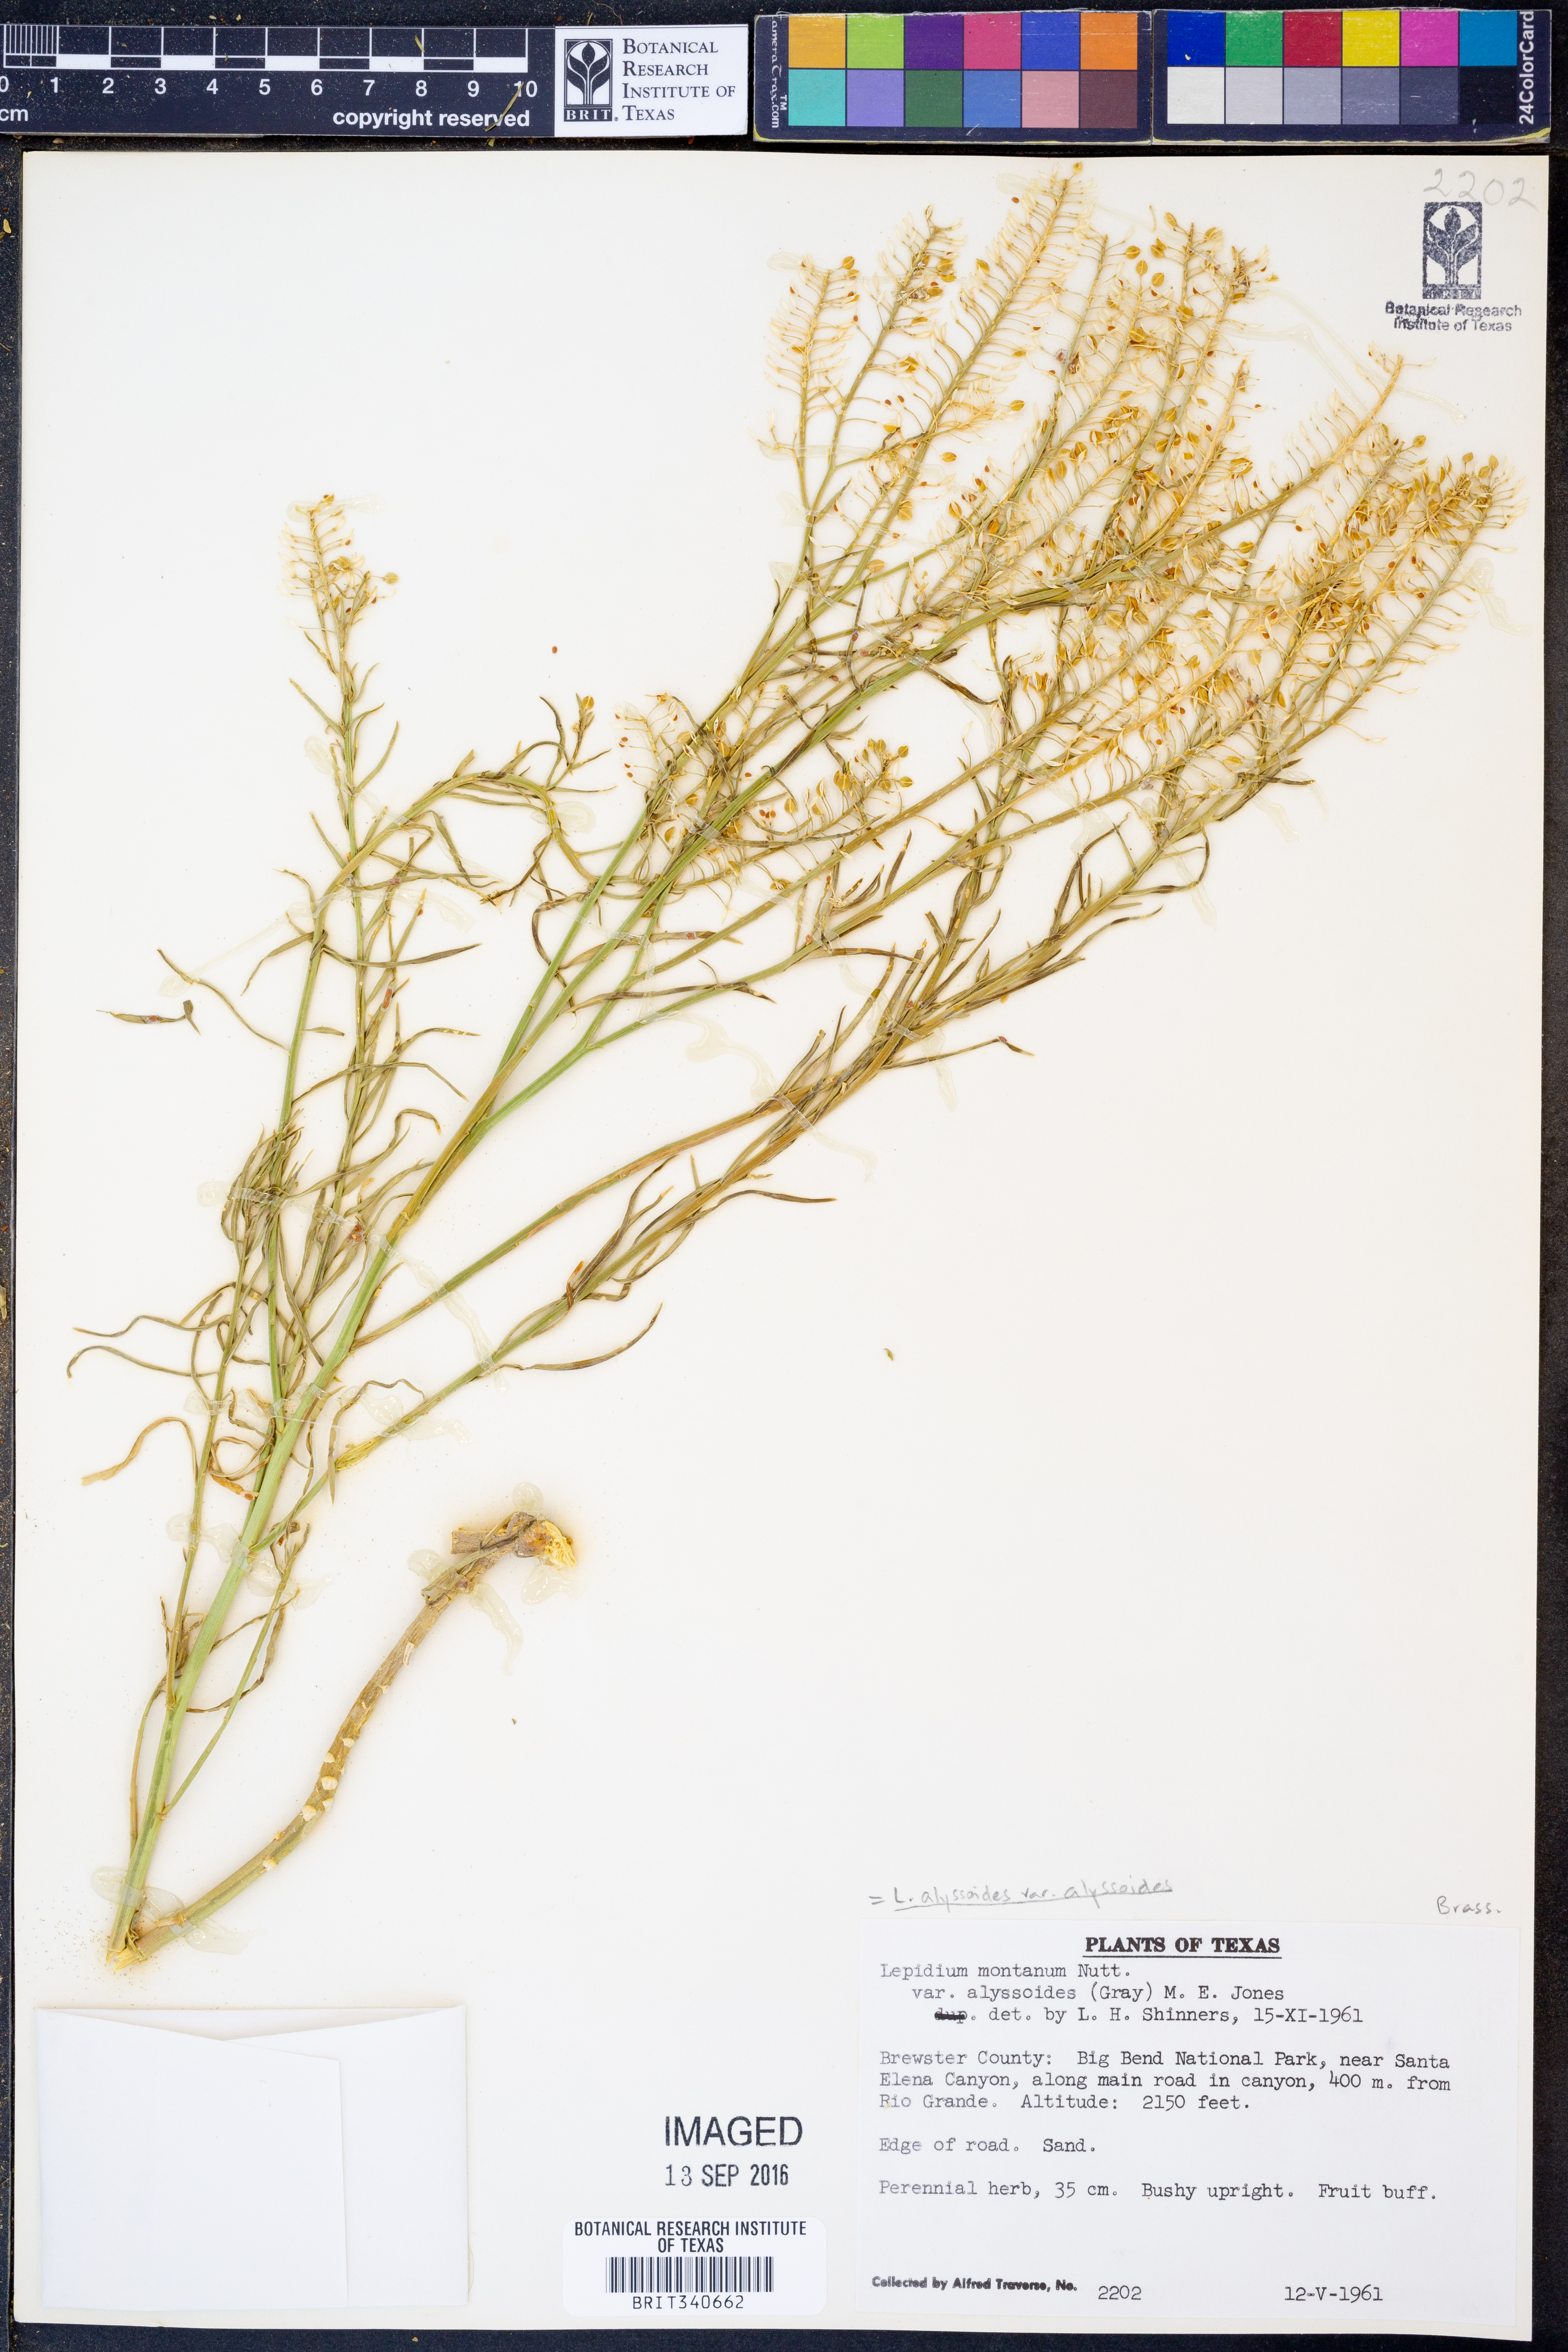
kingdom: Plantae
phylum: Tracheophyta
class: Magnoliopsida
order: Brassicales
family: Brassicaceae
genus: Lepidium
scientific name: Lepidium alyssoides
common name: Mesa pepperweed
